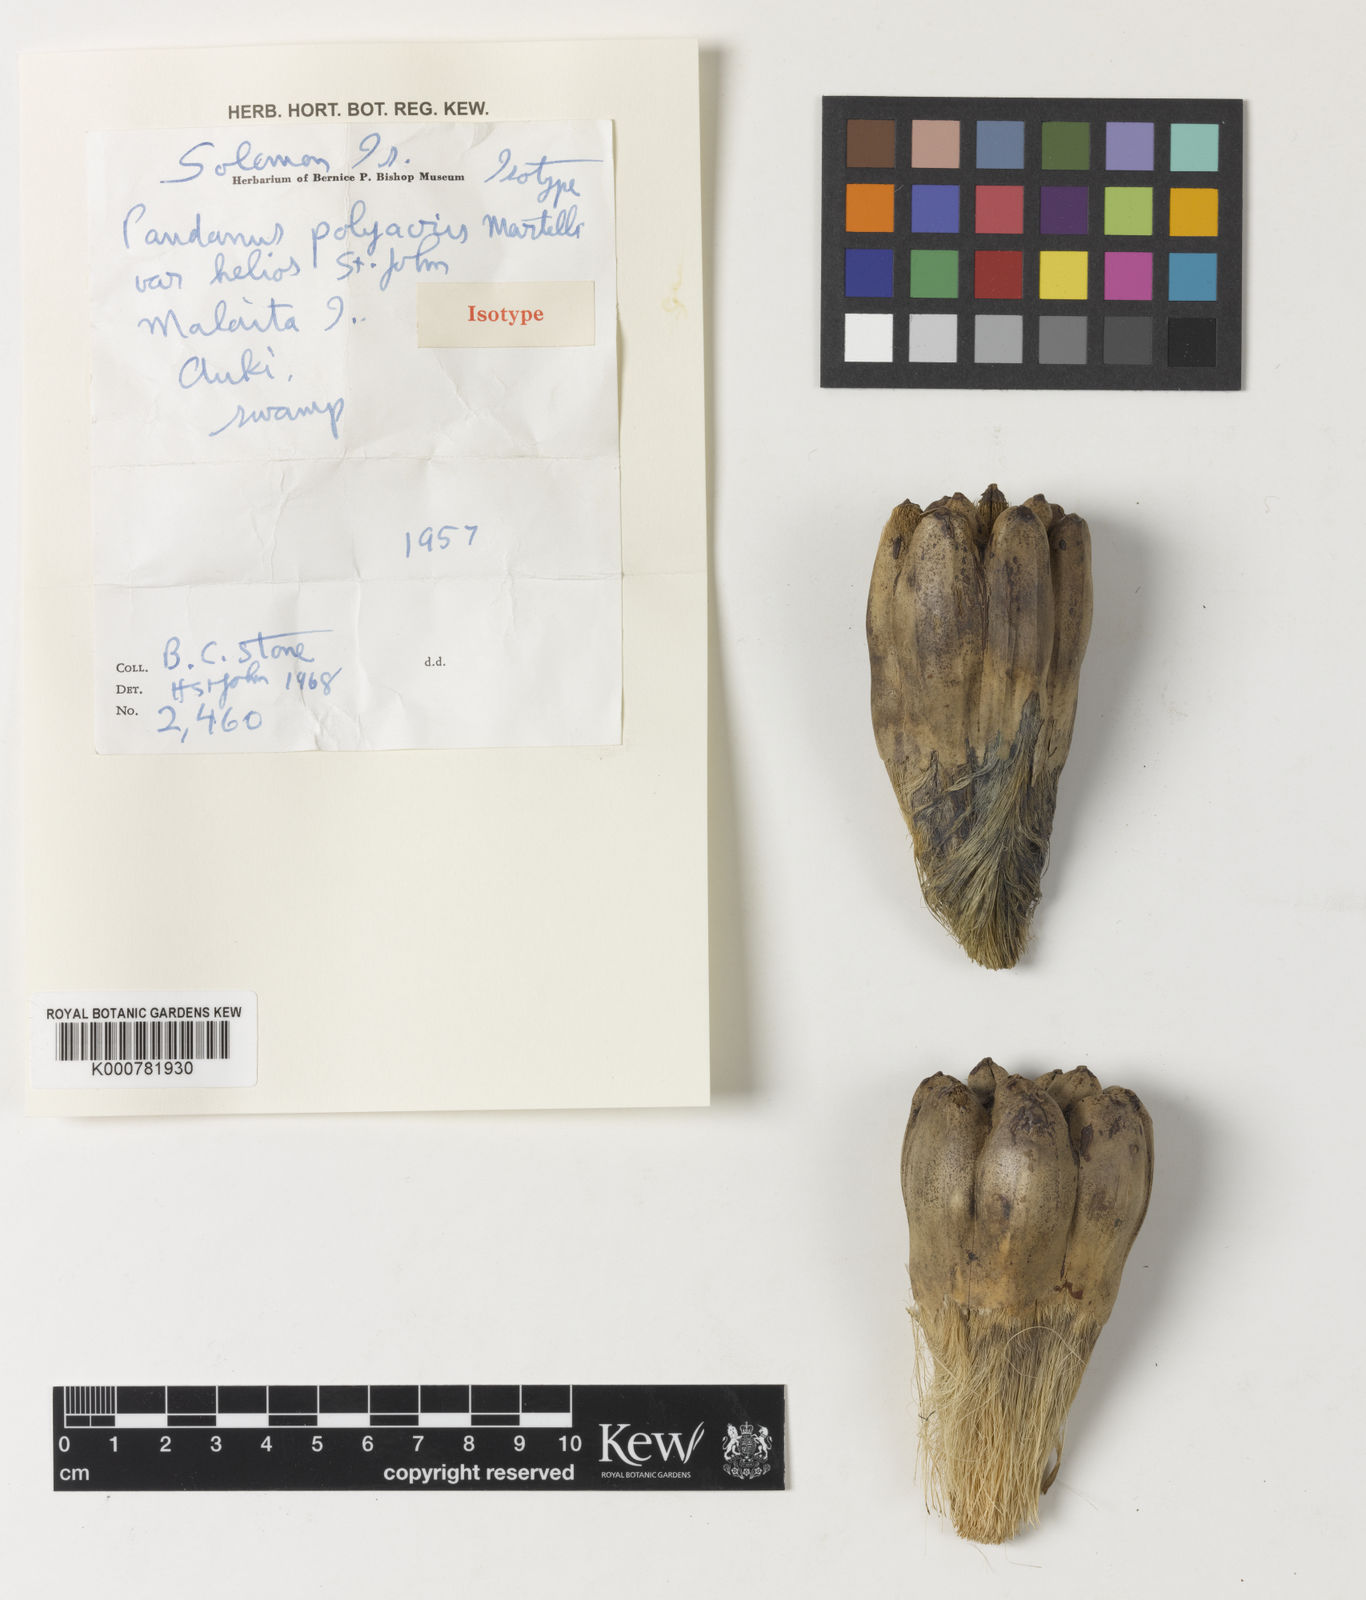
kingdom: Plantae
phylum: Tracheophyta
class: Liliopsida
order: Pandanales
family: Pandanaceae
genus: Pandanus
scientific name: Pandanus polyacris
